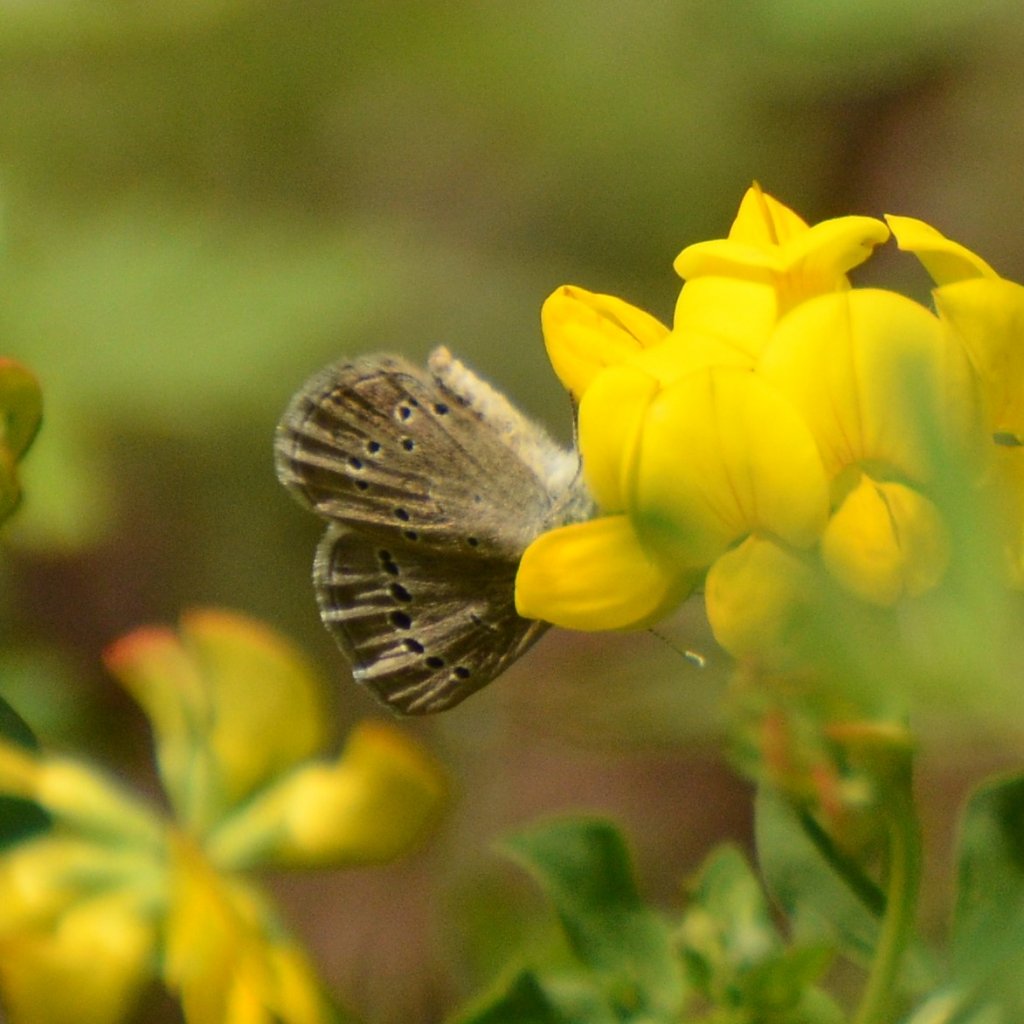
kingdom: Animalia
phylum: Arthropoda
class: Insecta
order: Lepidoptera
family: Lycaenidae
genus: Glaucopsyche
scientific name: Glaucopsyche lygdamus
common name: Silvery Blue
